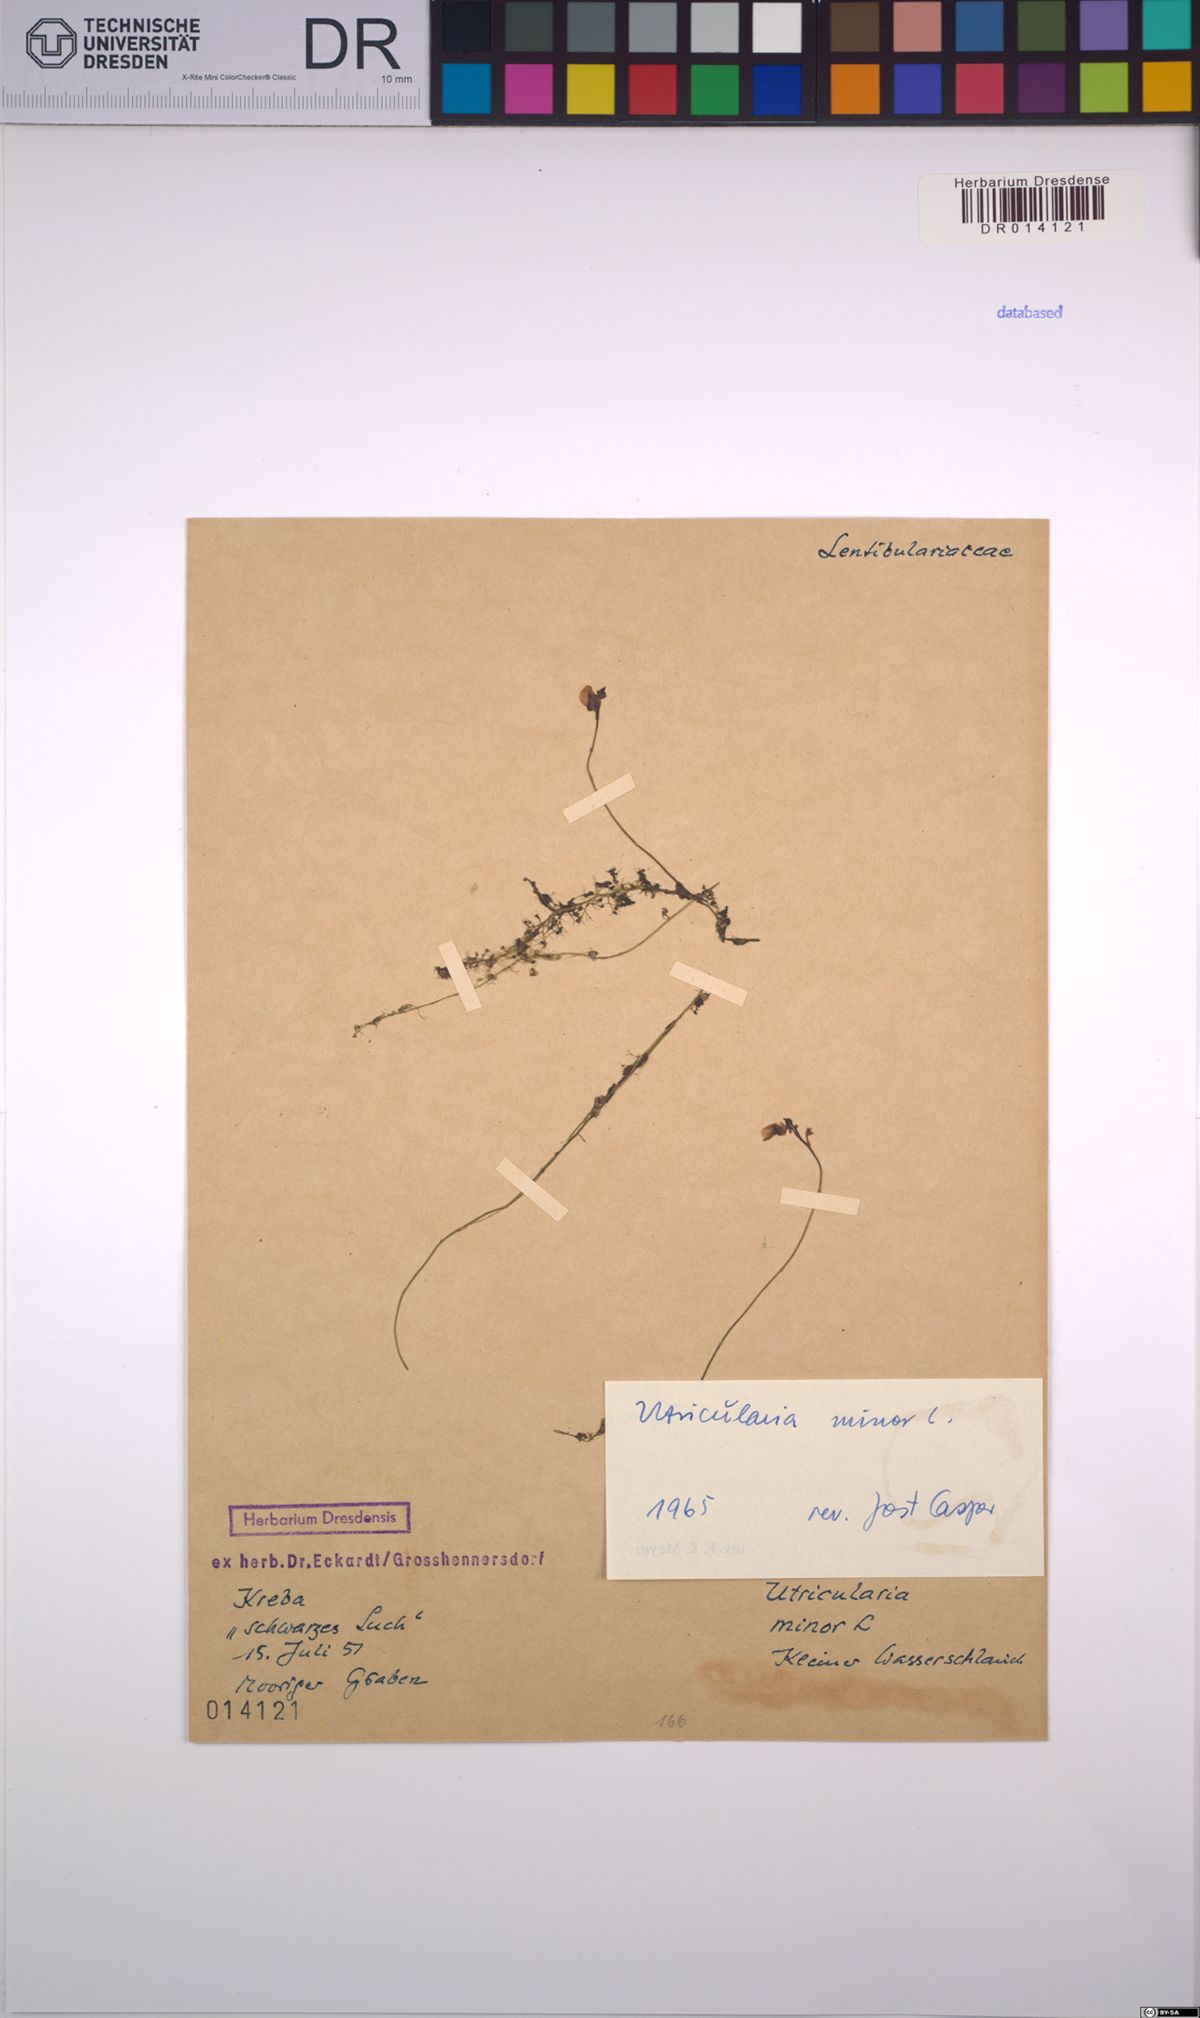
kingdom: Plantae
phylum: Tracheophyta
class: Magnoliopsida
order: Lamiales
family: Lentibulariaceae
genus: Utricularia
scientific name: Utricularia minor
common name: Lesser bladderwort
